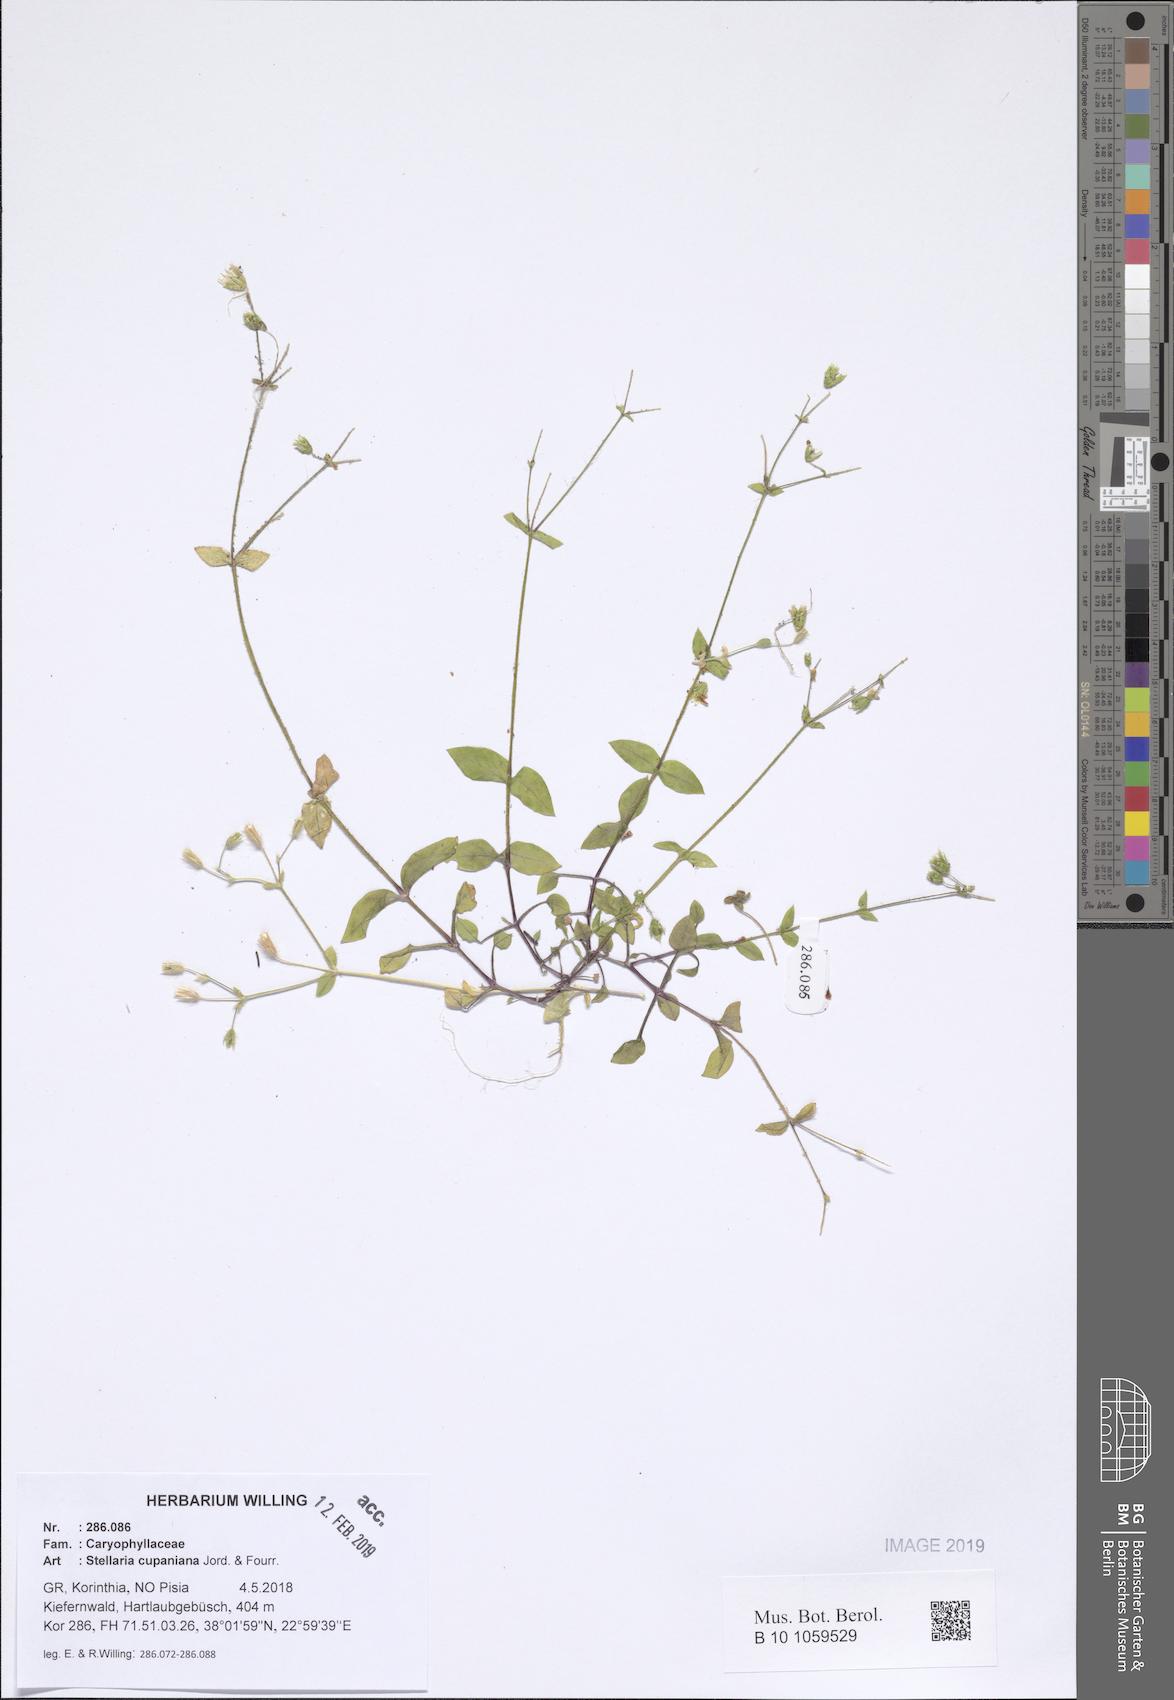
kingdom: Plantae
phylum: Tracheophyta
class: Magnoliopsida
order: Caryophyllales
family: Caryophyllaceae
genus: Stellaria
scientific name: Stellaria cupaniana
